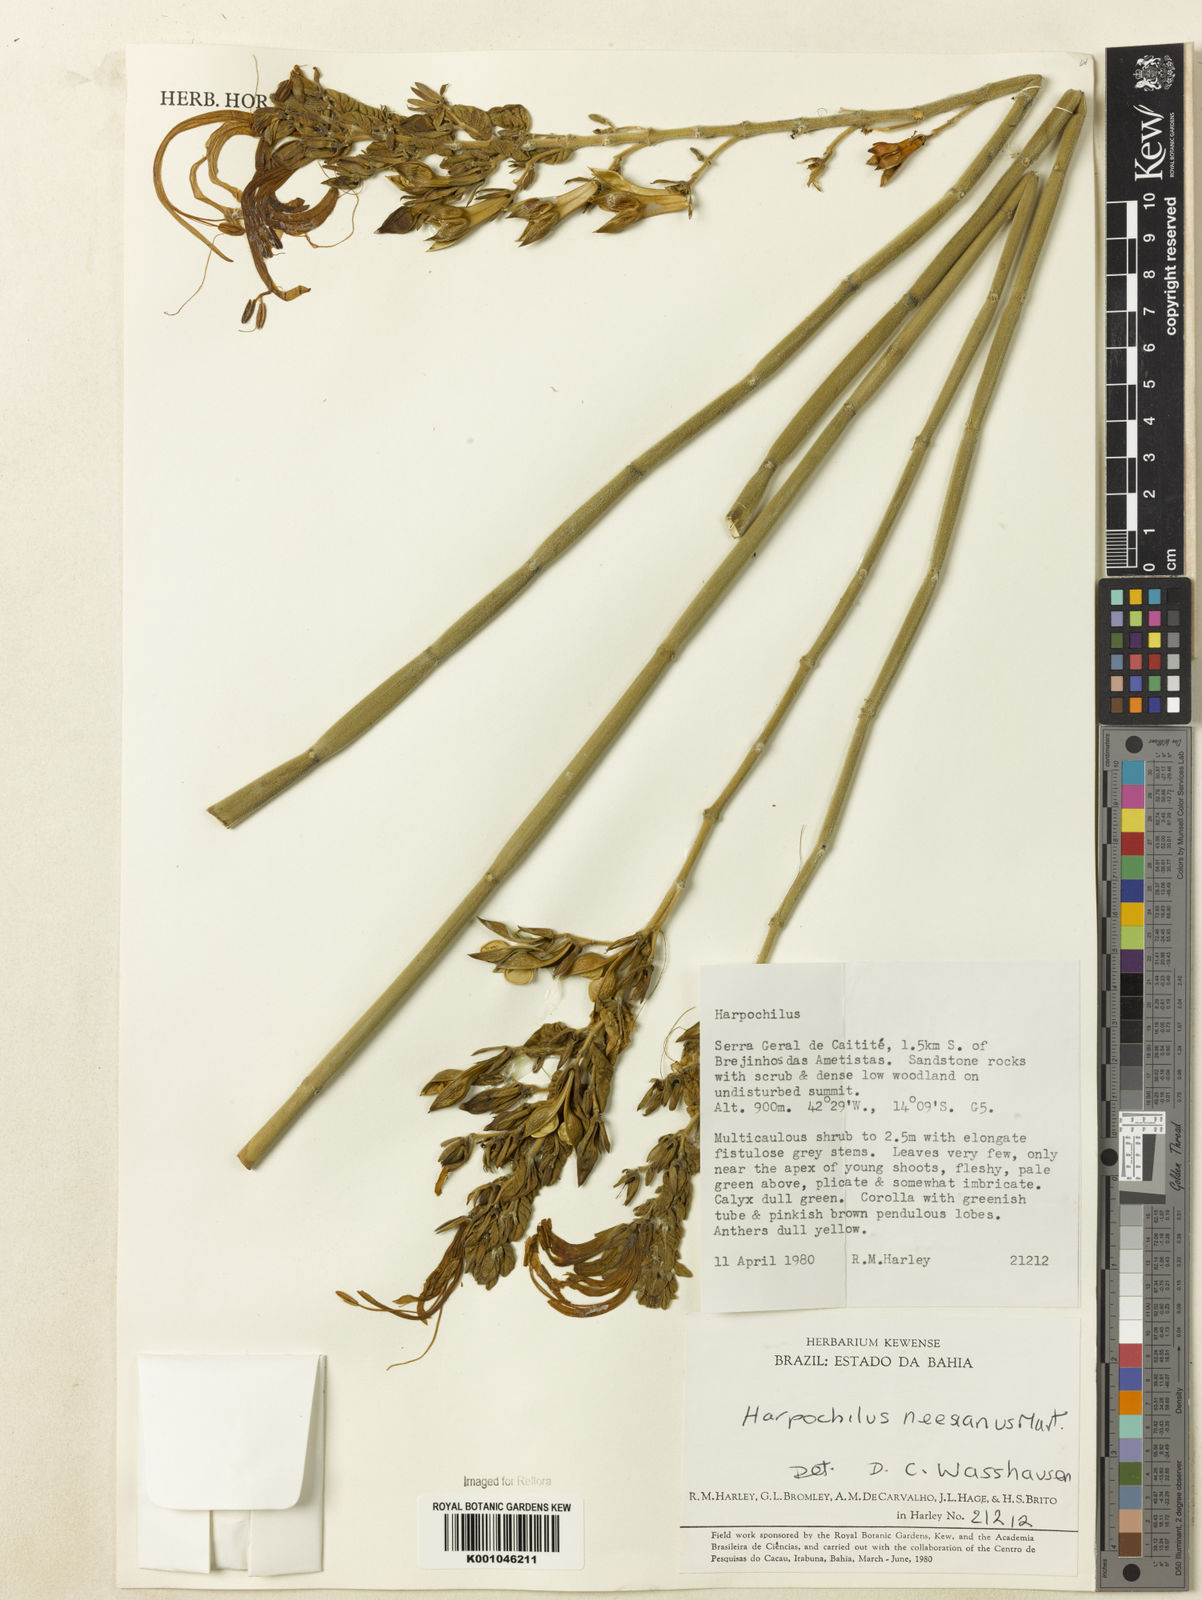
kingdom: Plantae
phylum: Tracheophyta
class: Magnoliopsida
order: Lamiales
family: Acanthaceae
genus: Harpochilus
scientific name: Harpochilus neesianus
